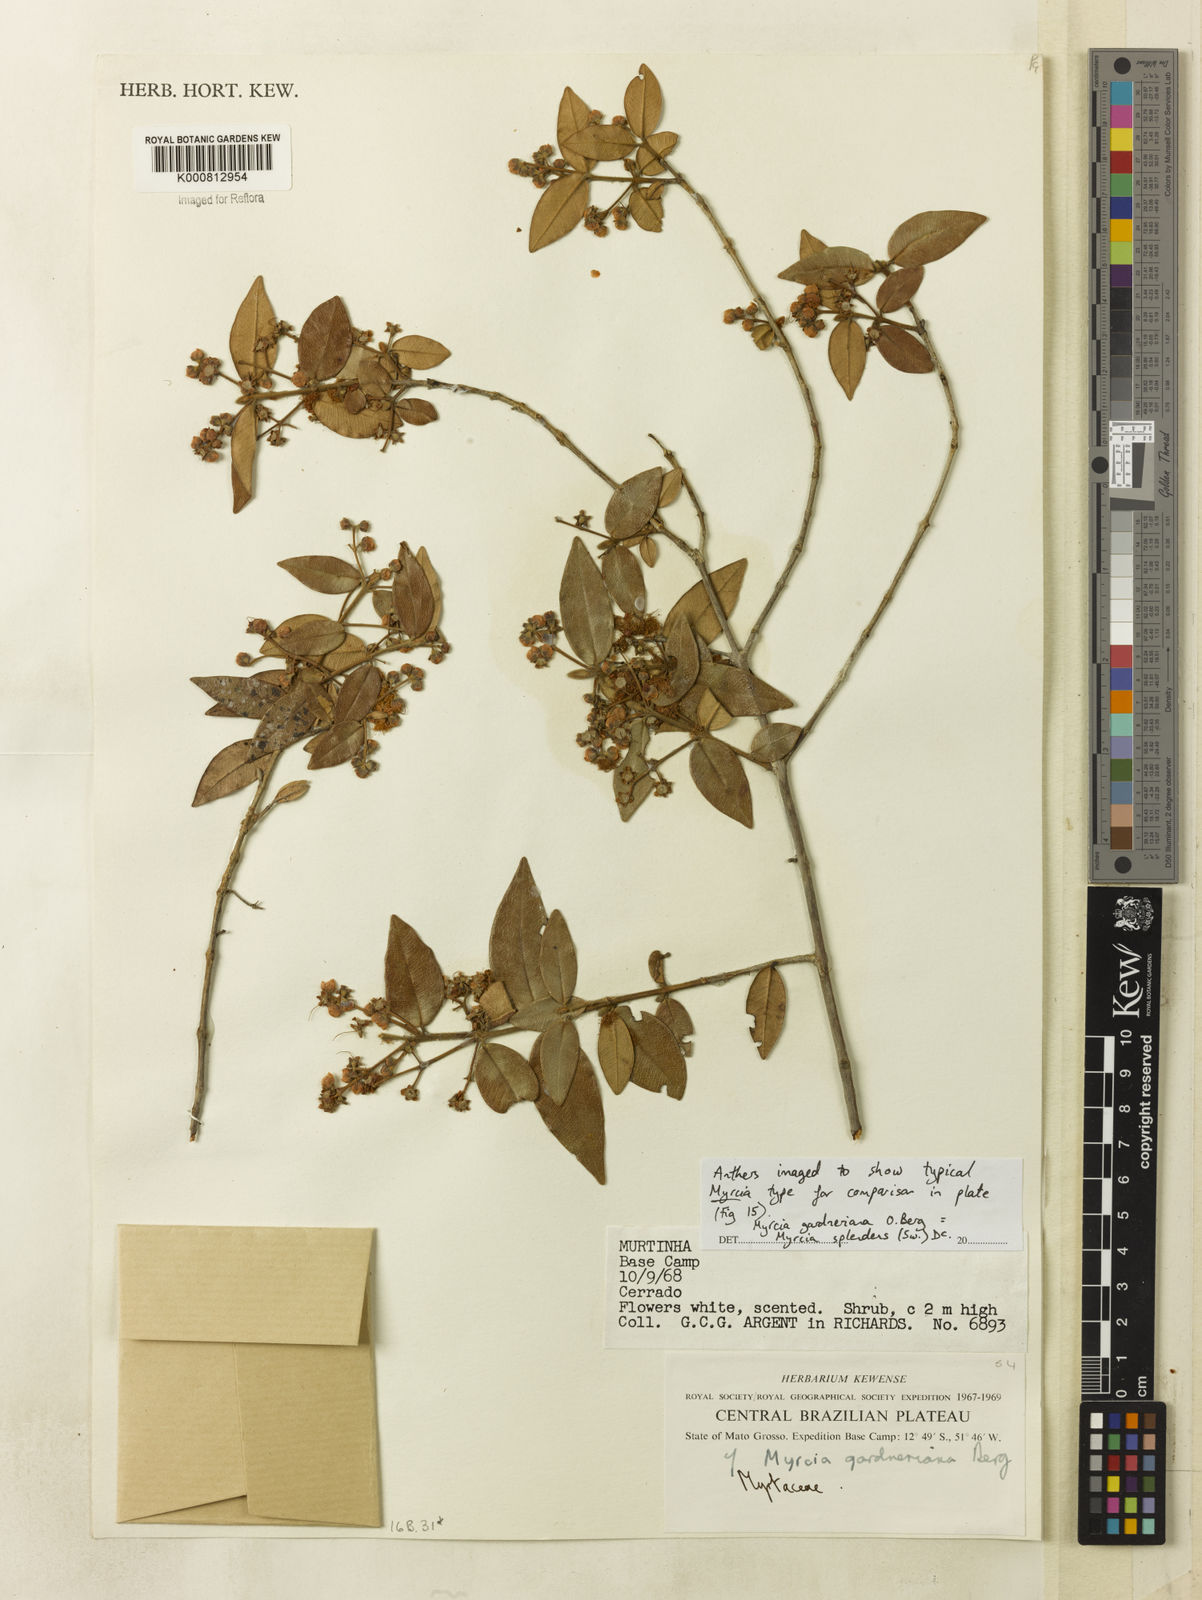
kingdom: Plantae
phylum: Tracheophyta
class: Magnoliopsida
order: Myrtales
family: Myrtaceae
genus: Myrcia
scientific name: Myrcia splendens
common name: Surinam cherry
